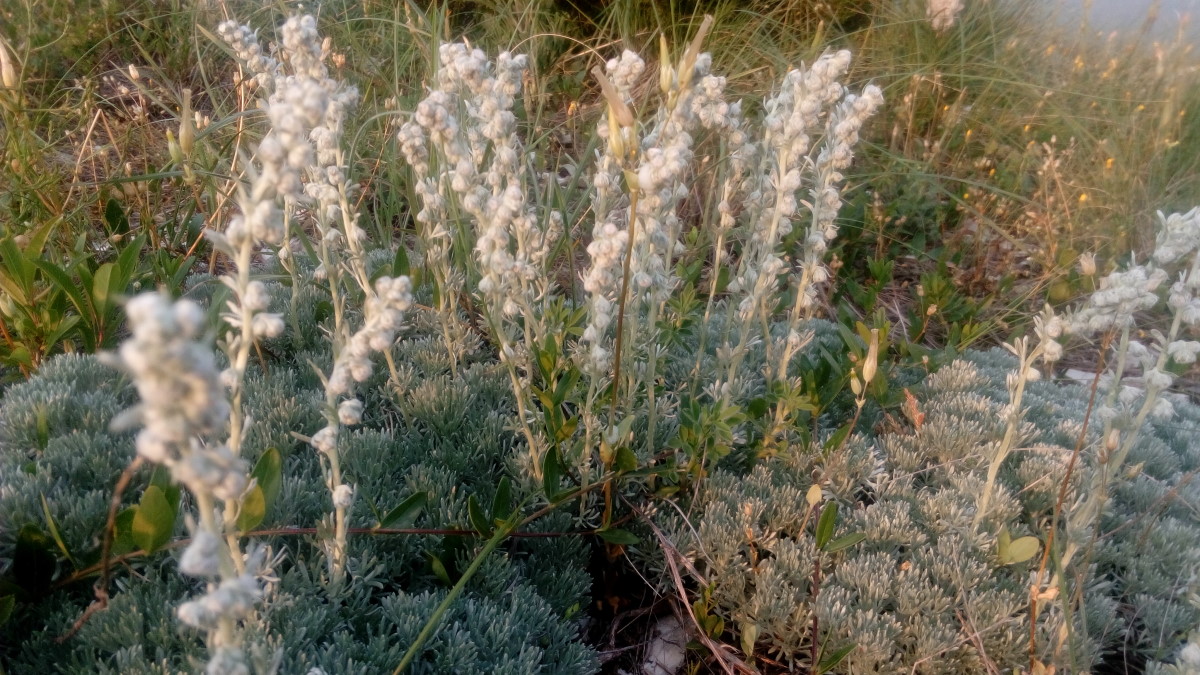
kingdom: Plantae
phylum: Tracheophyta
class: Magnoliopsida
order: Asterales
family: Asteraceae
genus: Artemisia
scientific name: Artemisia alpina
